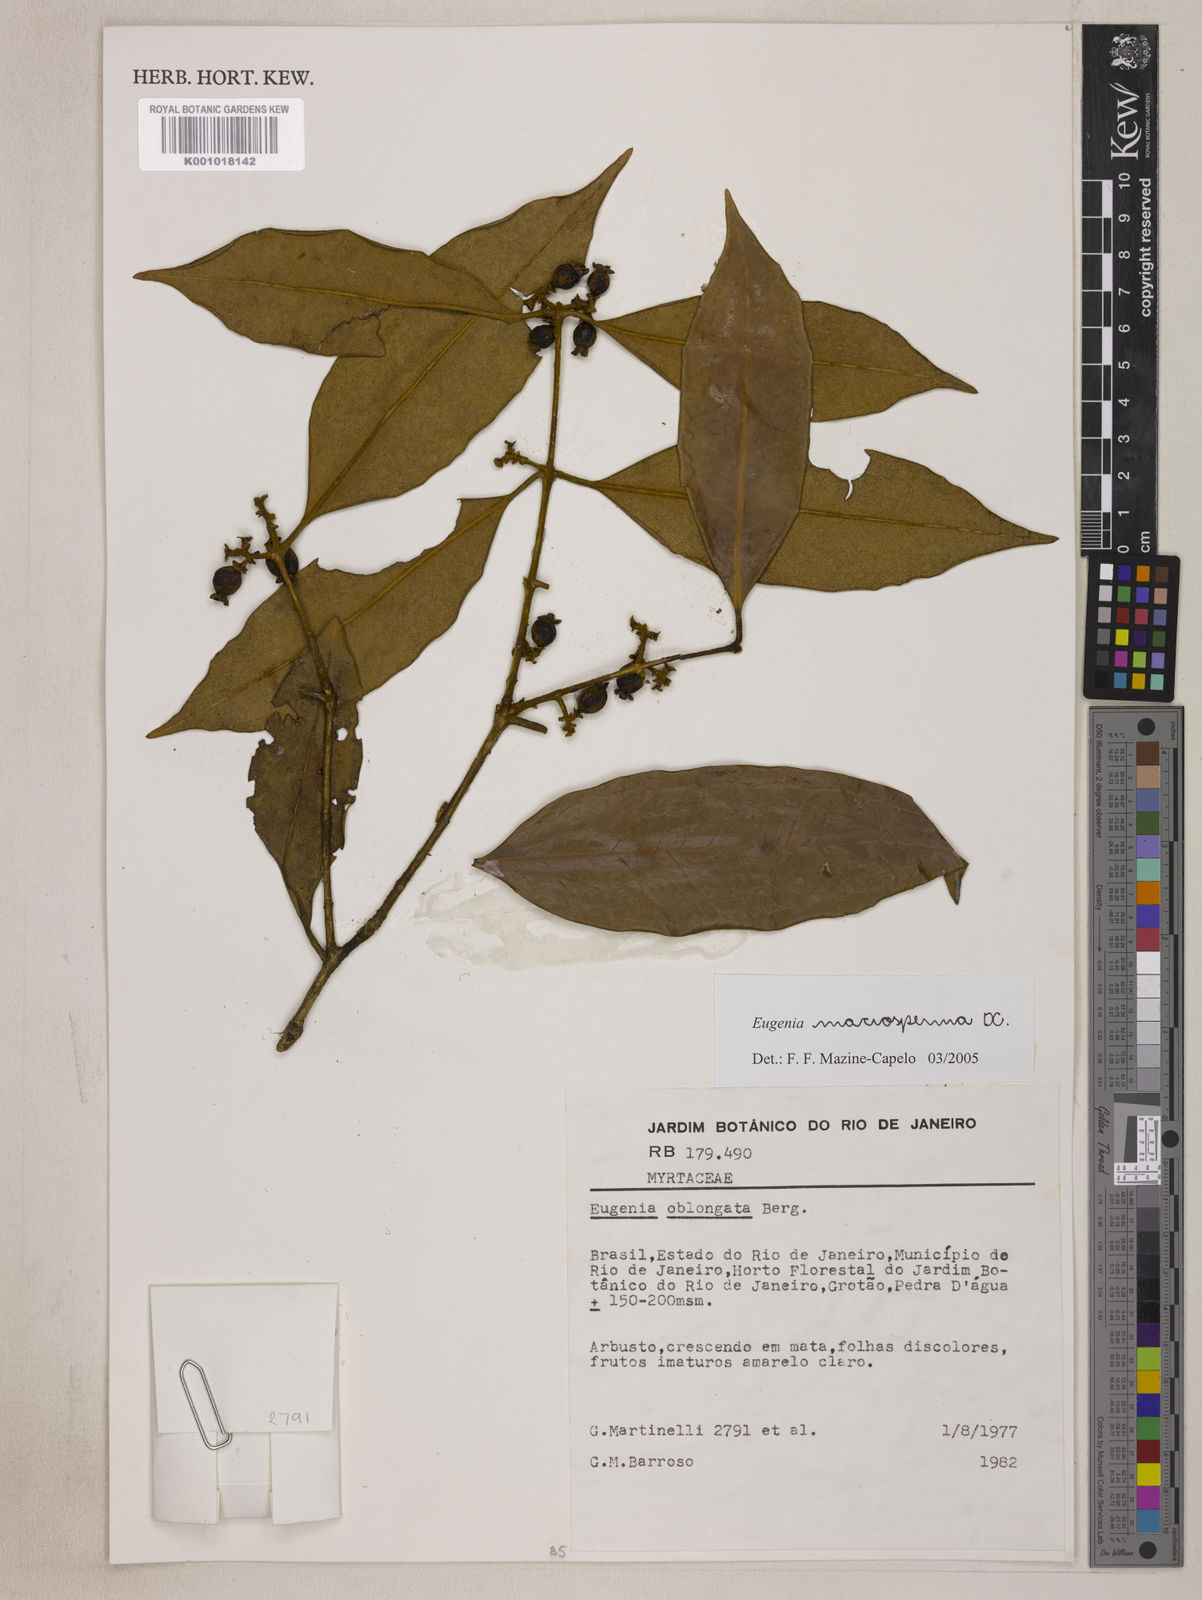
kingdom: Plantae
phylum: Tracheophyta
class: Magnoliopsida
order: Myrtales
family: Myrtaceae
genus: Eugenia
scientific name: Eugenia macrosperma
